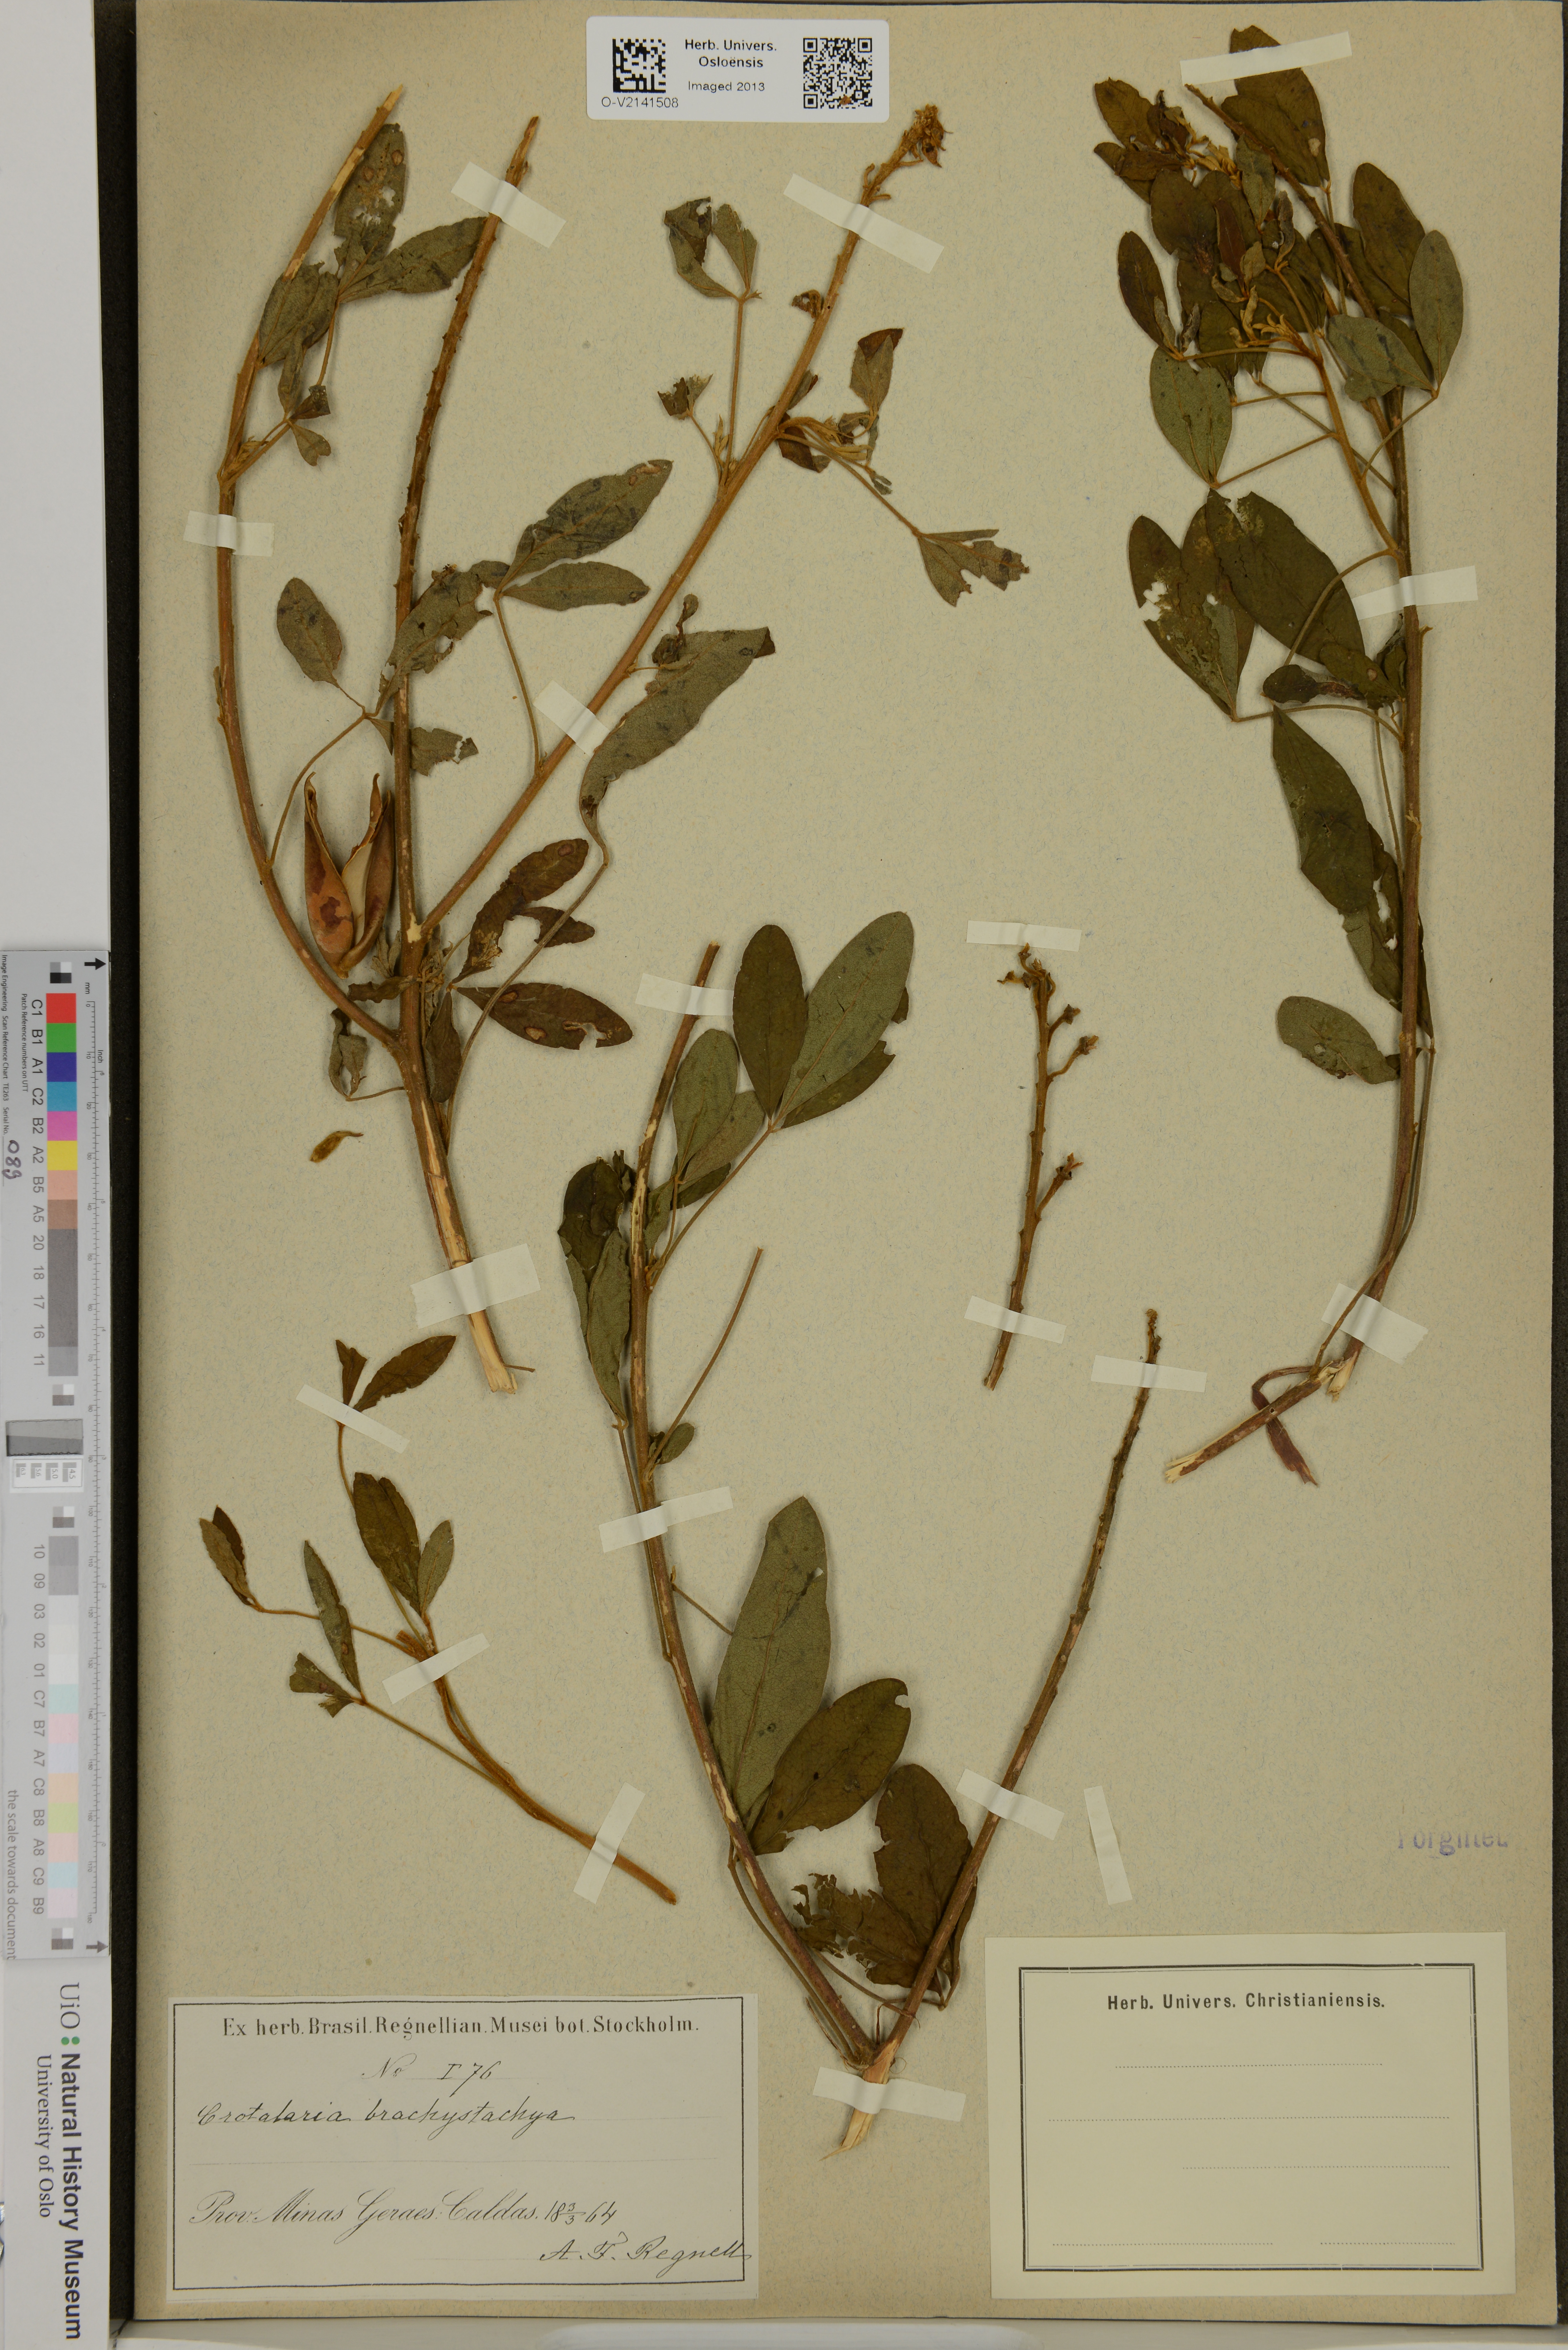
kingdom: Plantae
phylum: Tracheophyta
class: Magnoliopsida
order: Fabales
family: Fabaceae
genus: Crotalaria
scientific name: Crotalaria micans
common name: Caracas rattlebox
